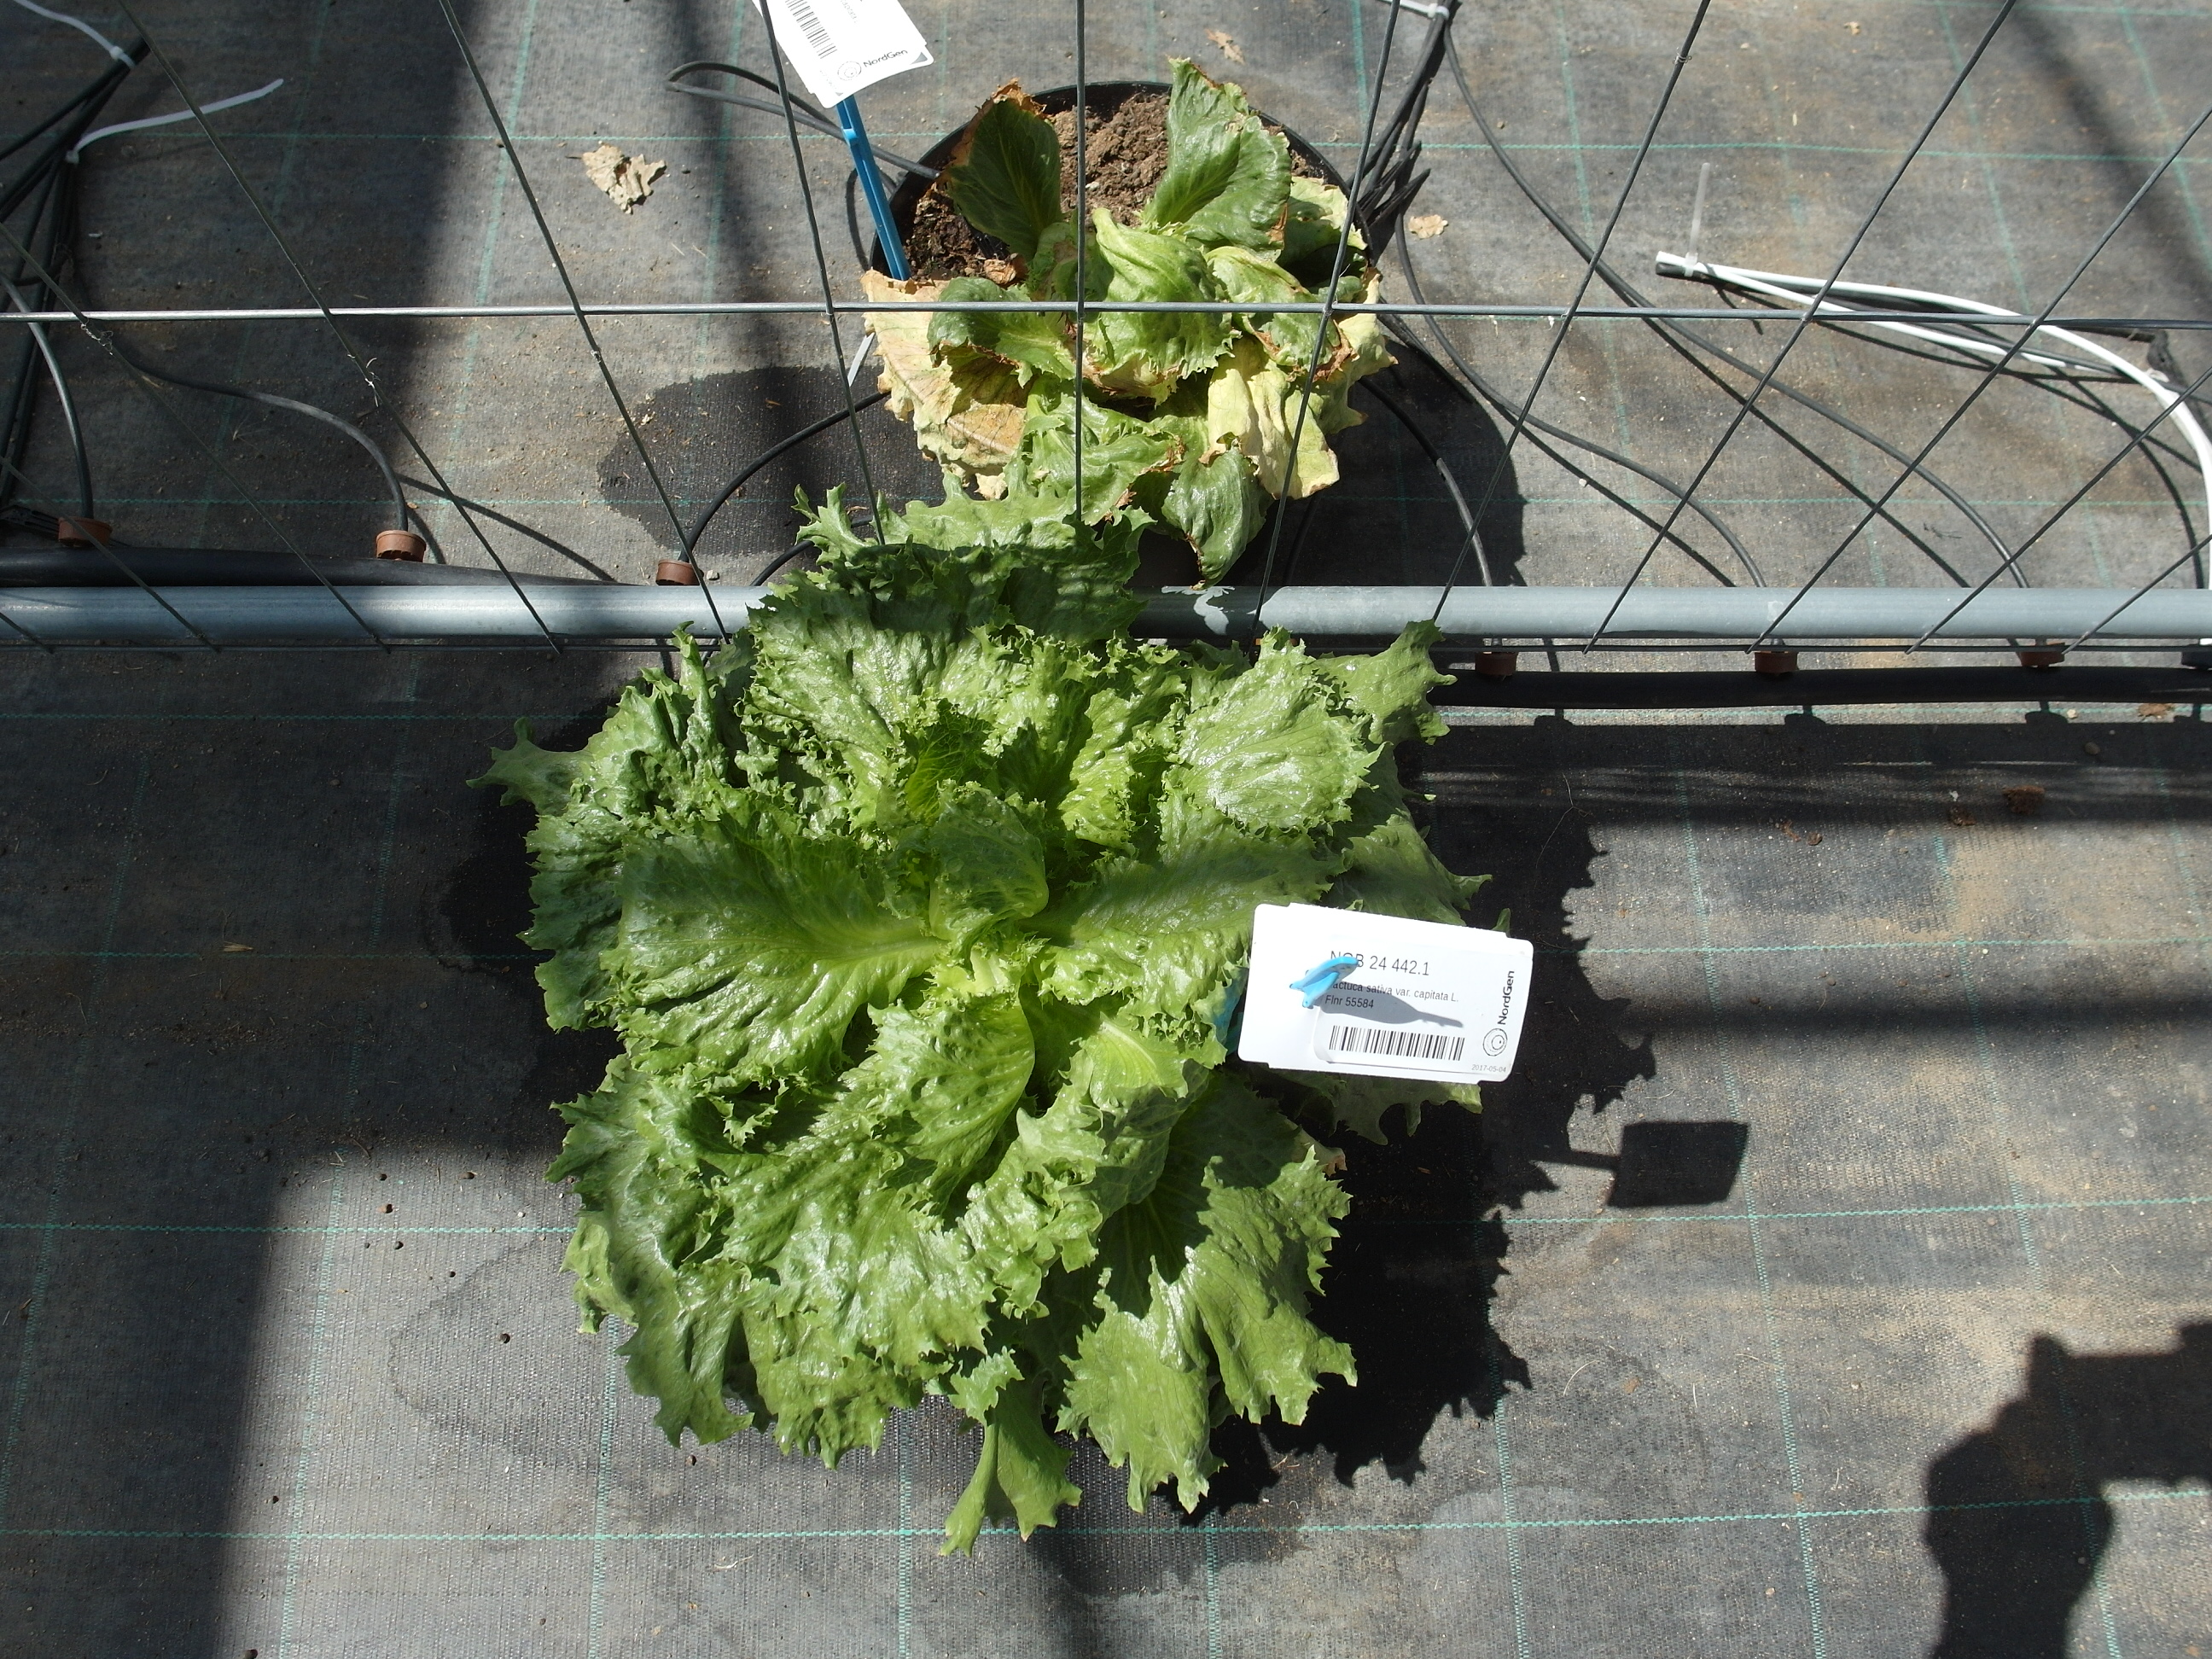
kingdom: Plantae
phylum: Tracheophyta
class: Magnoliopsida
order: Asterales
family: Asteraceae
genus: Lactuca
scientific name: Lactuca sativa
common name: Garden lettuce
